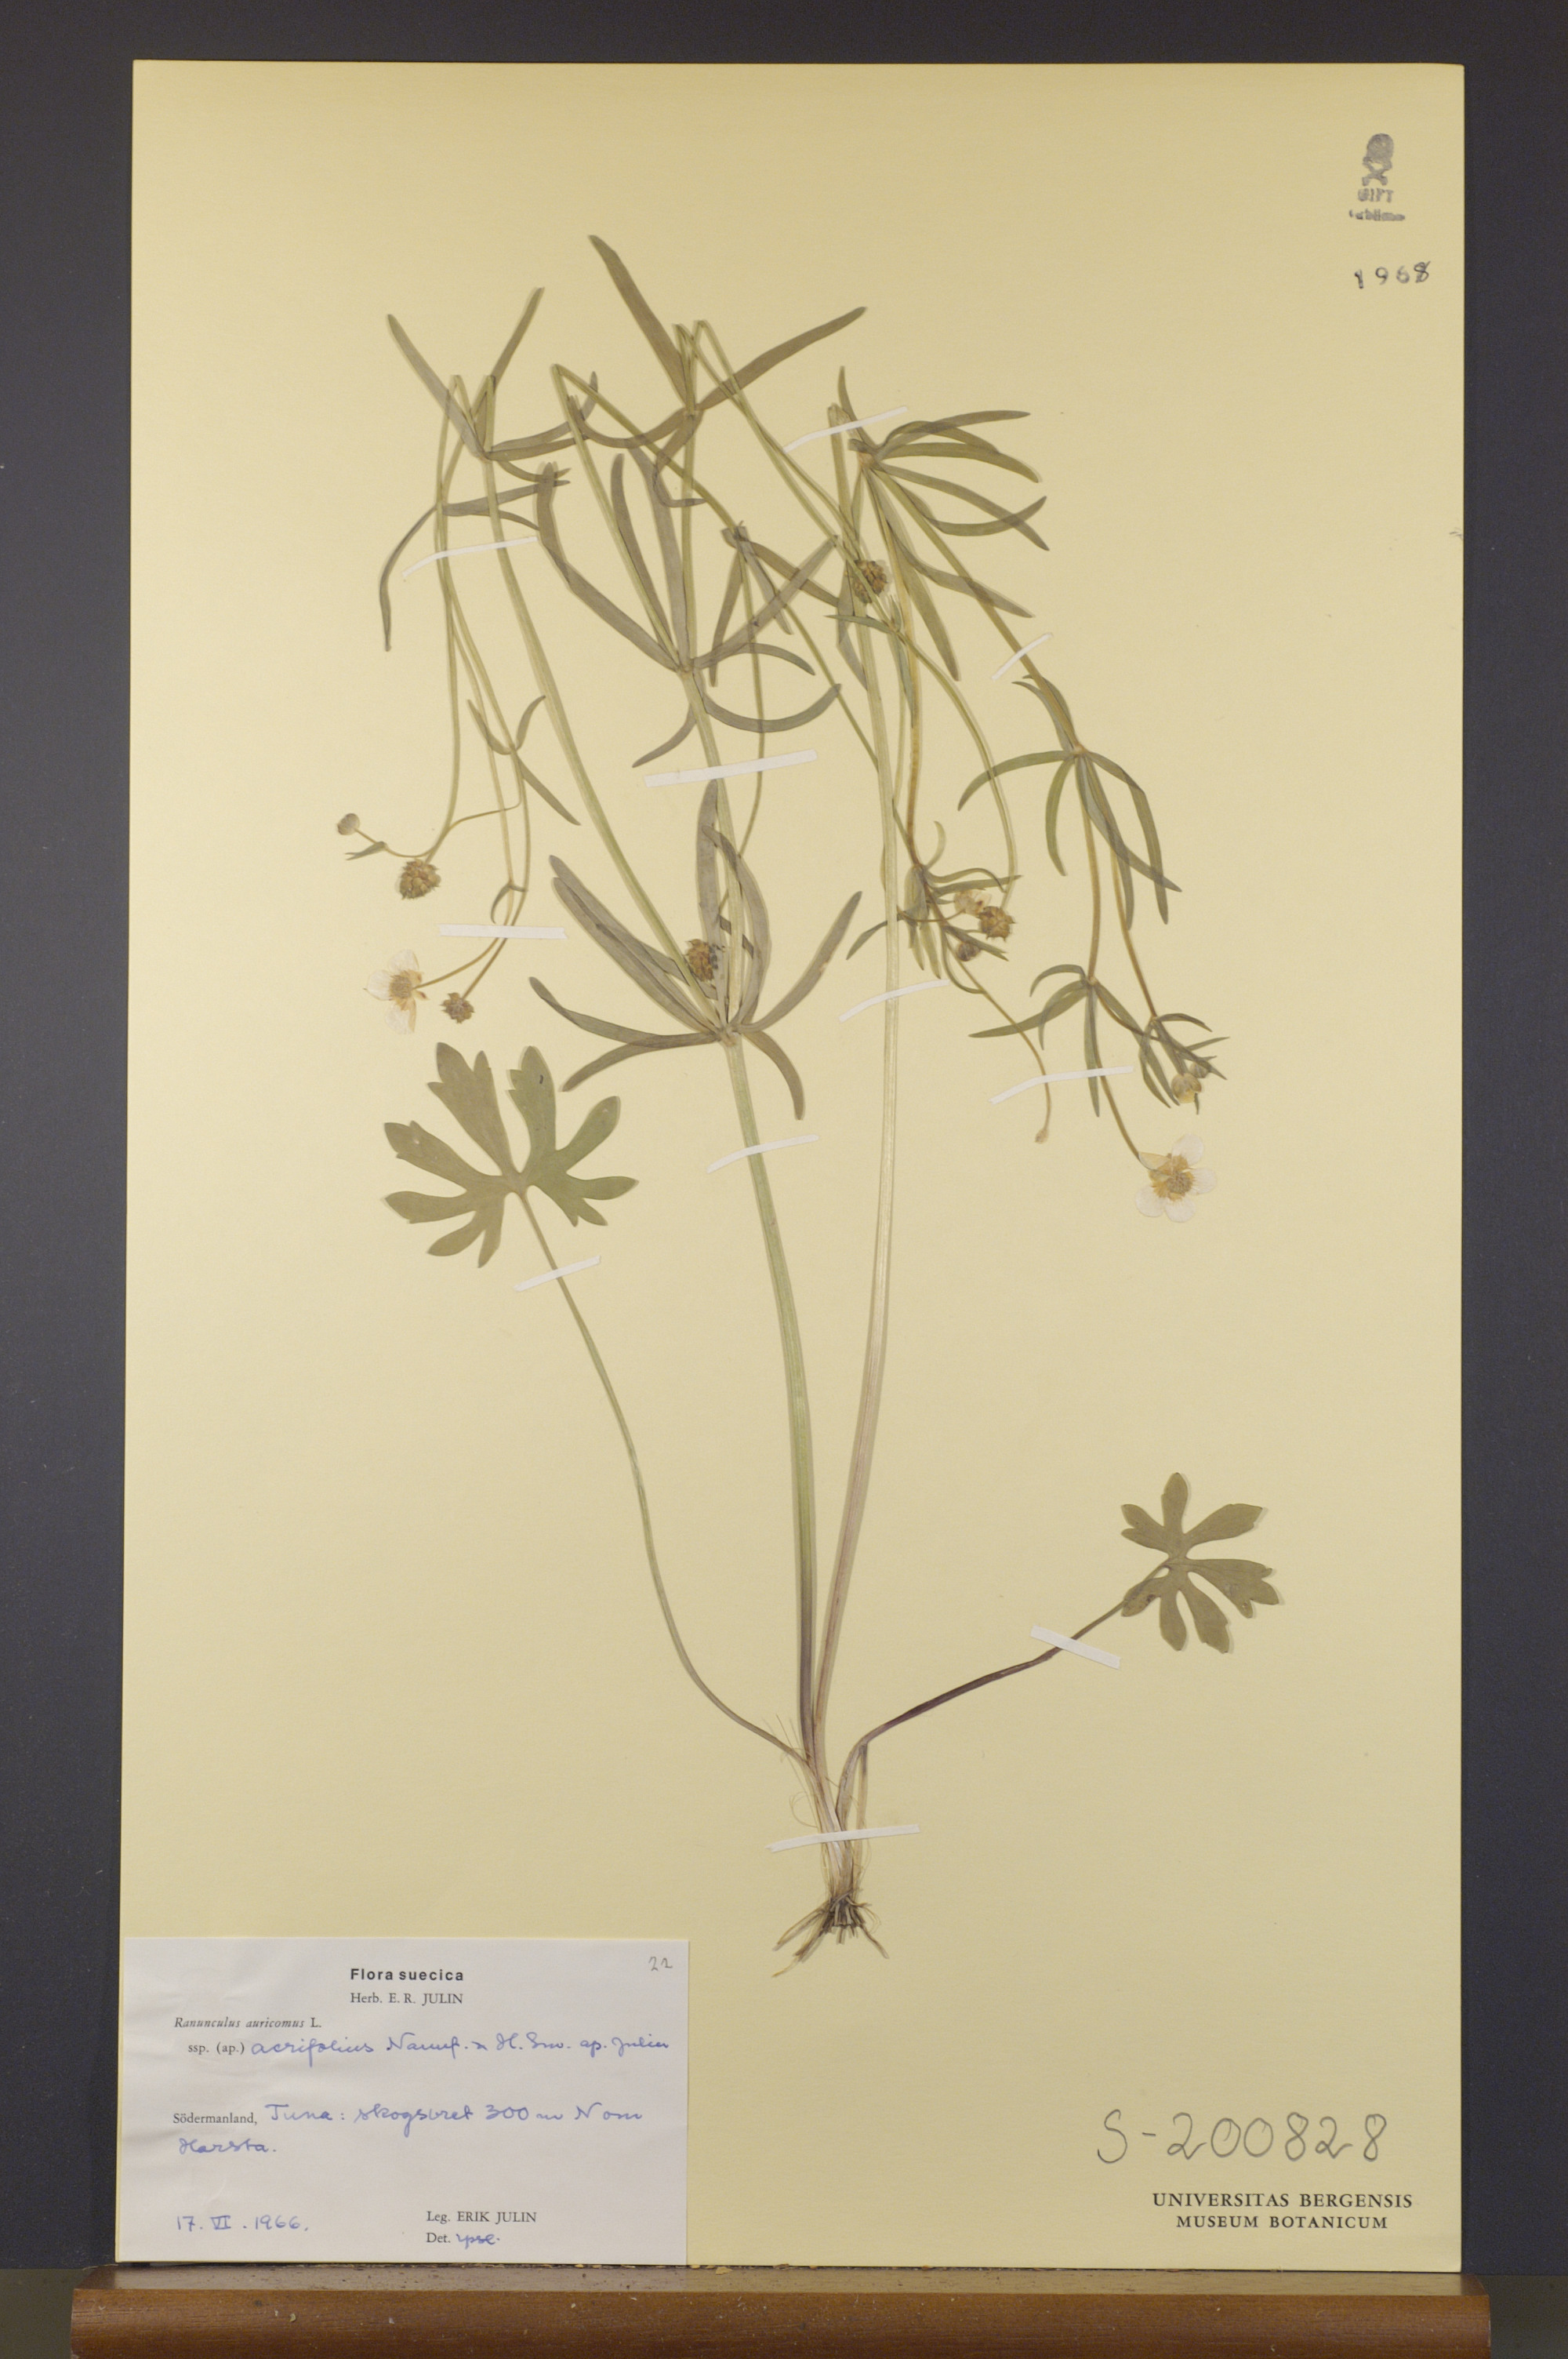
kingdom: Plantae
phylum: Tracheophyta
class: Magnoliopsida
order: Ranunculales
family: Ranunculaceae
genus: Ranunculus
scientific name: Ranunculus acrifolius
